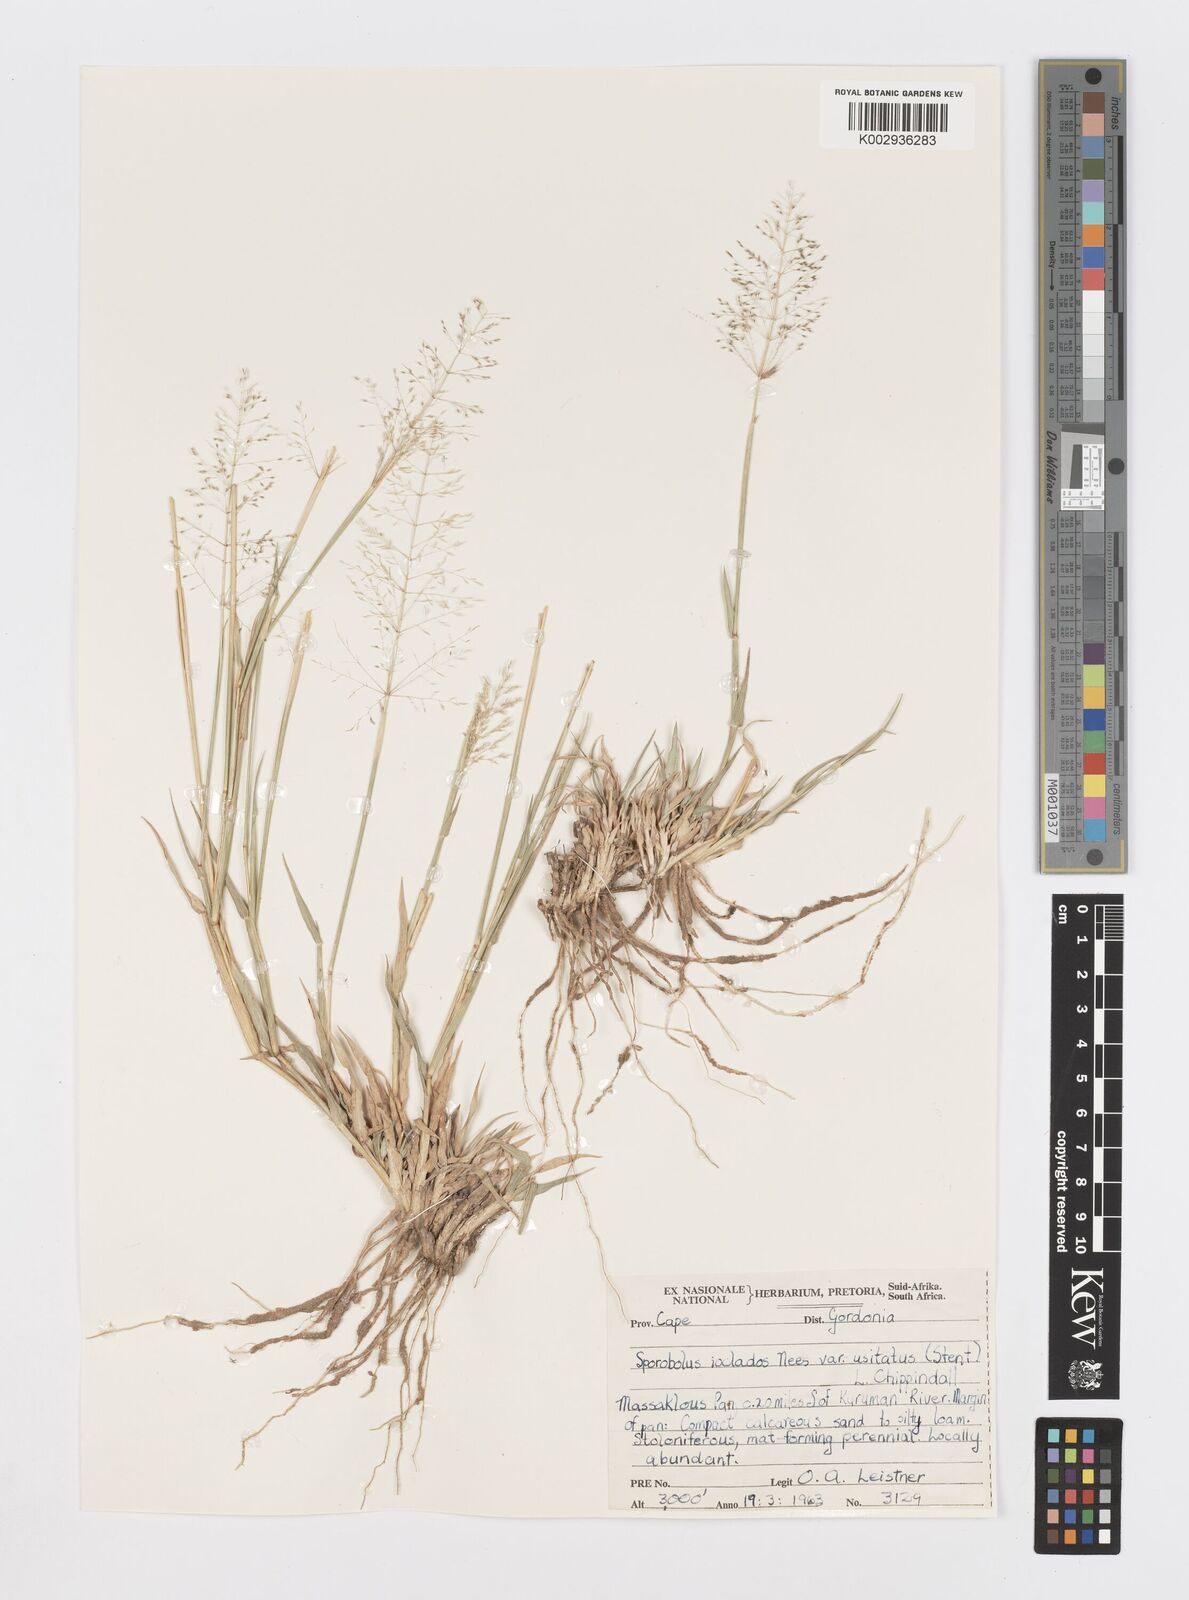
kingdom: Plantae
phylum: Tracheophyta
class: Liliopsida
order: Poales
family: Poaceae
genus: Sporobolus
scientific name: Sporobolus ioclados
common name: Pan dropseed
